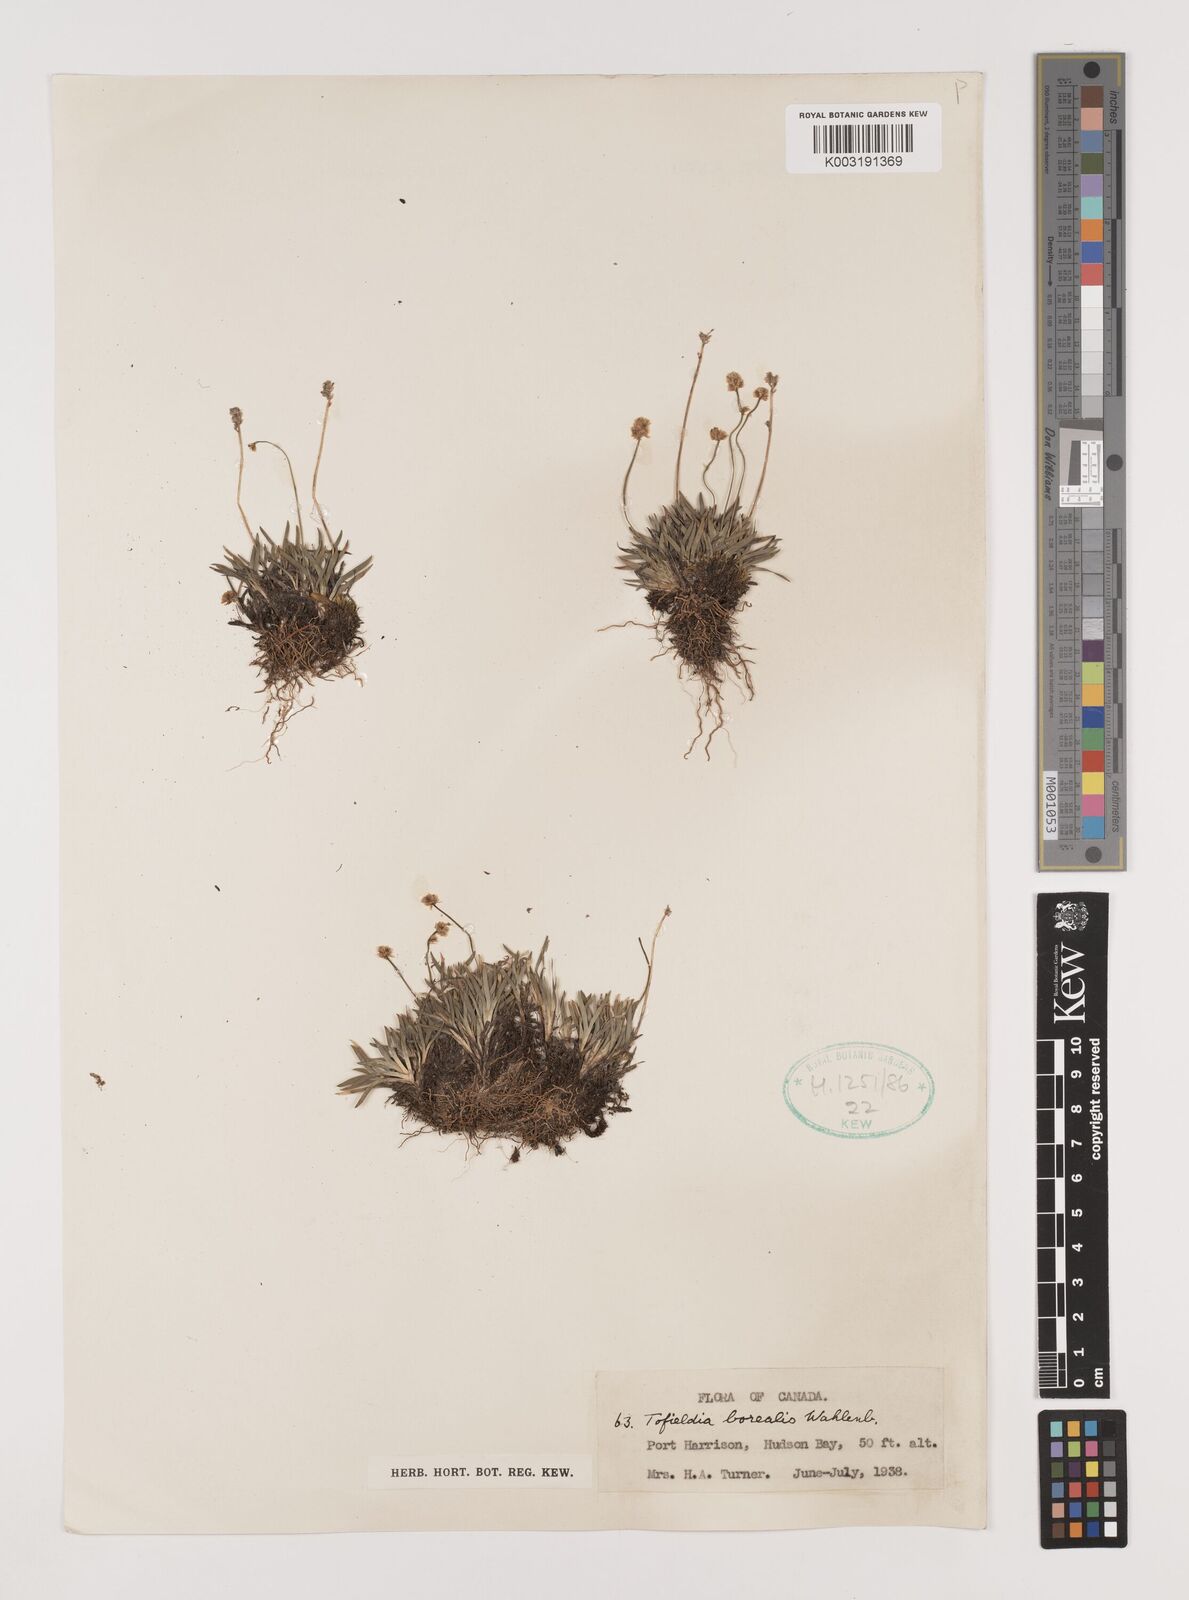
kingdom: Plantae
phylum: Tracheophyta
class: Liliopsida
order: Alismatales
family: Tofieldiaceae
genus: Tofieldia
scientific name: Tofieldia pusilla
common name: Scottish false asphodel
